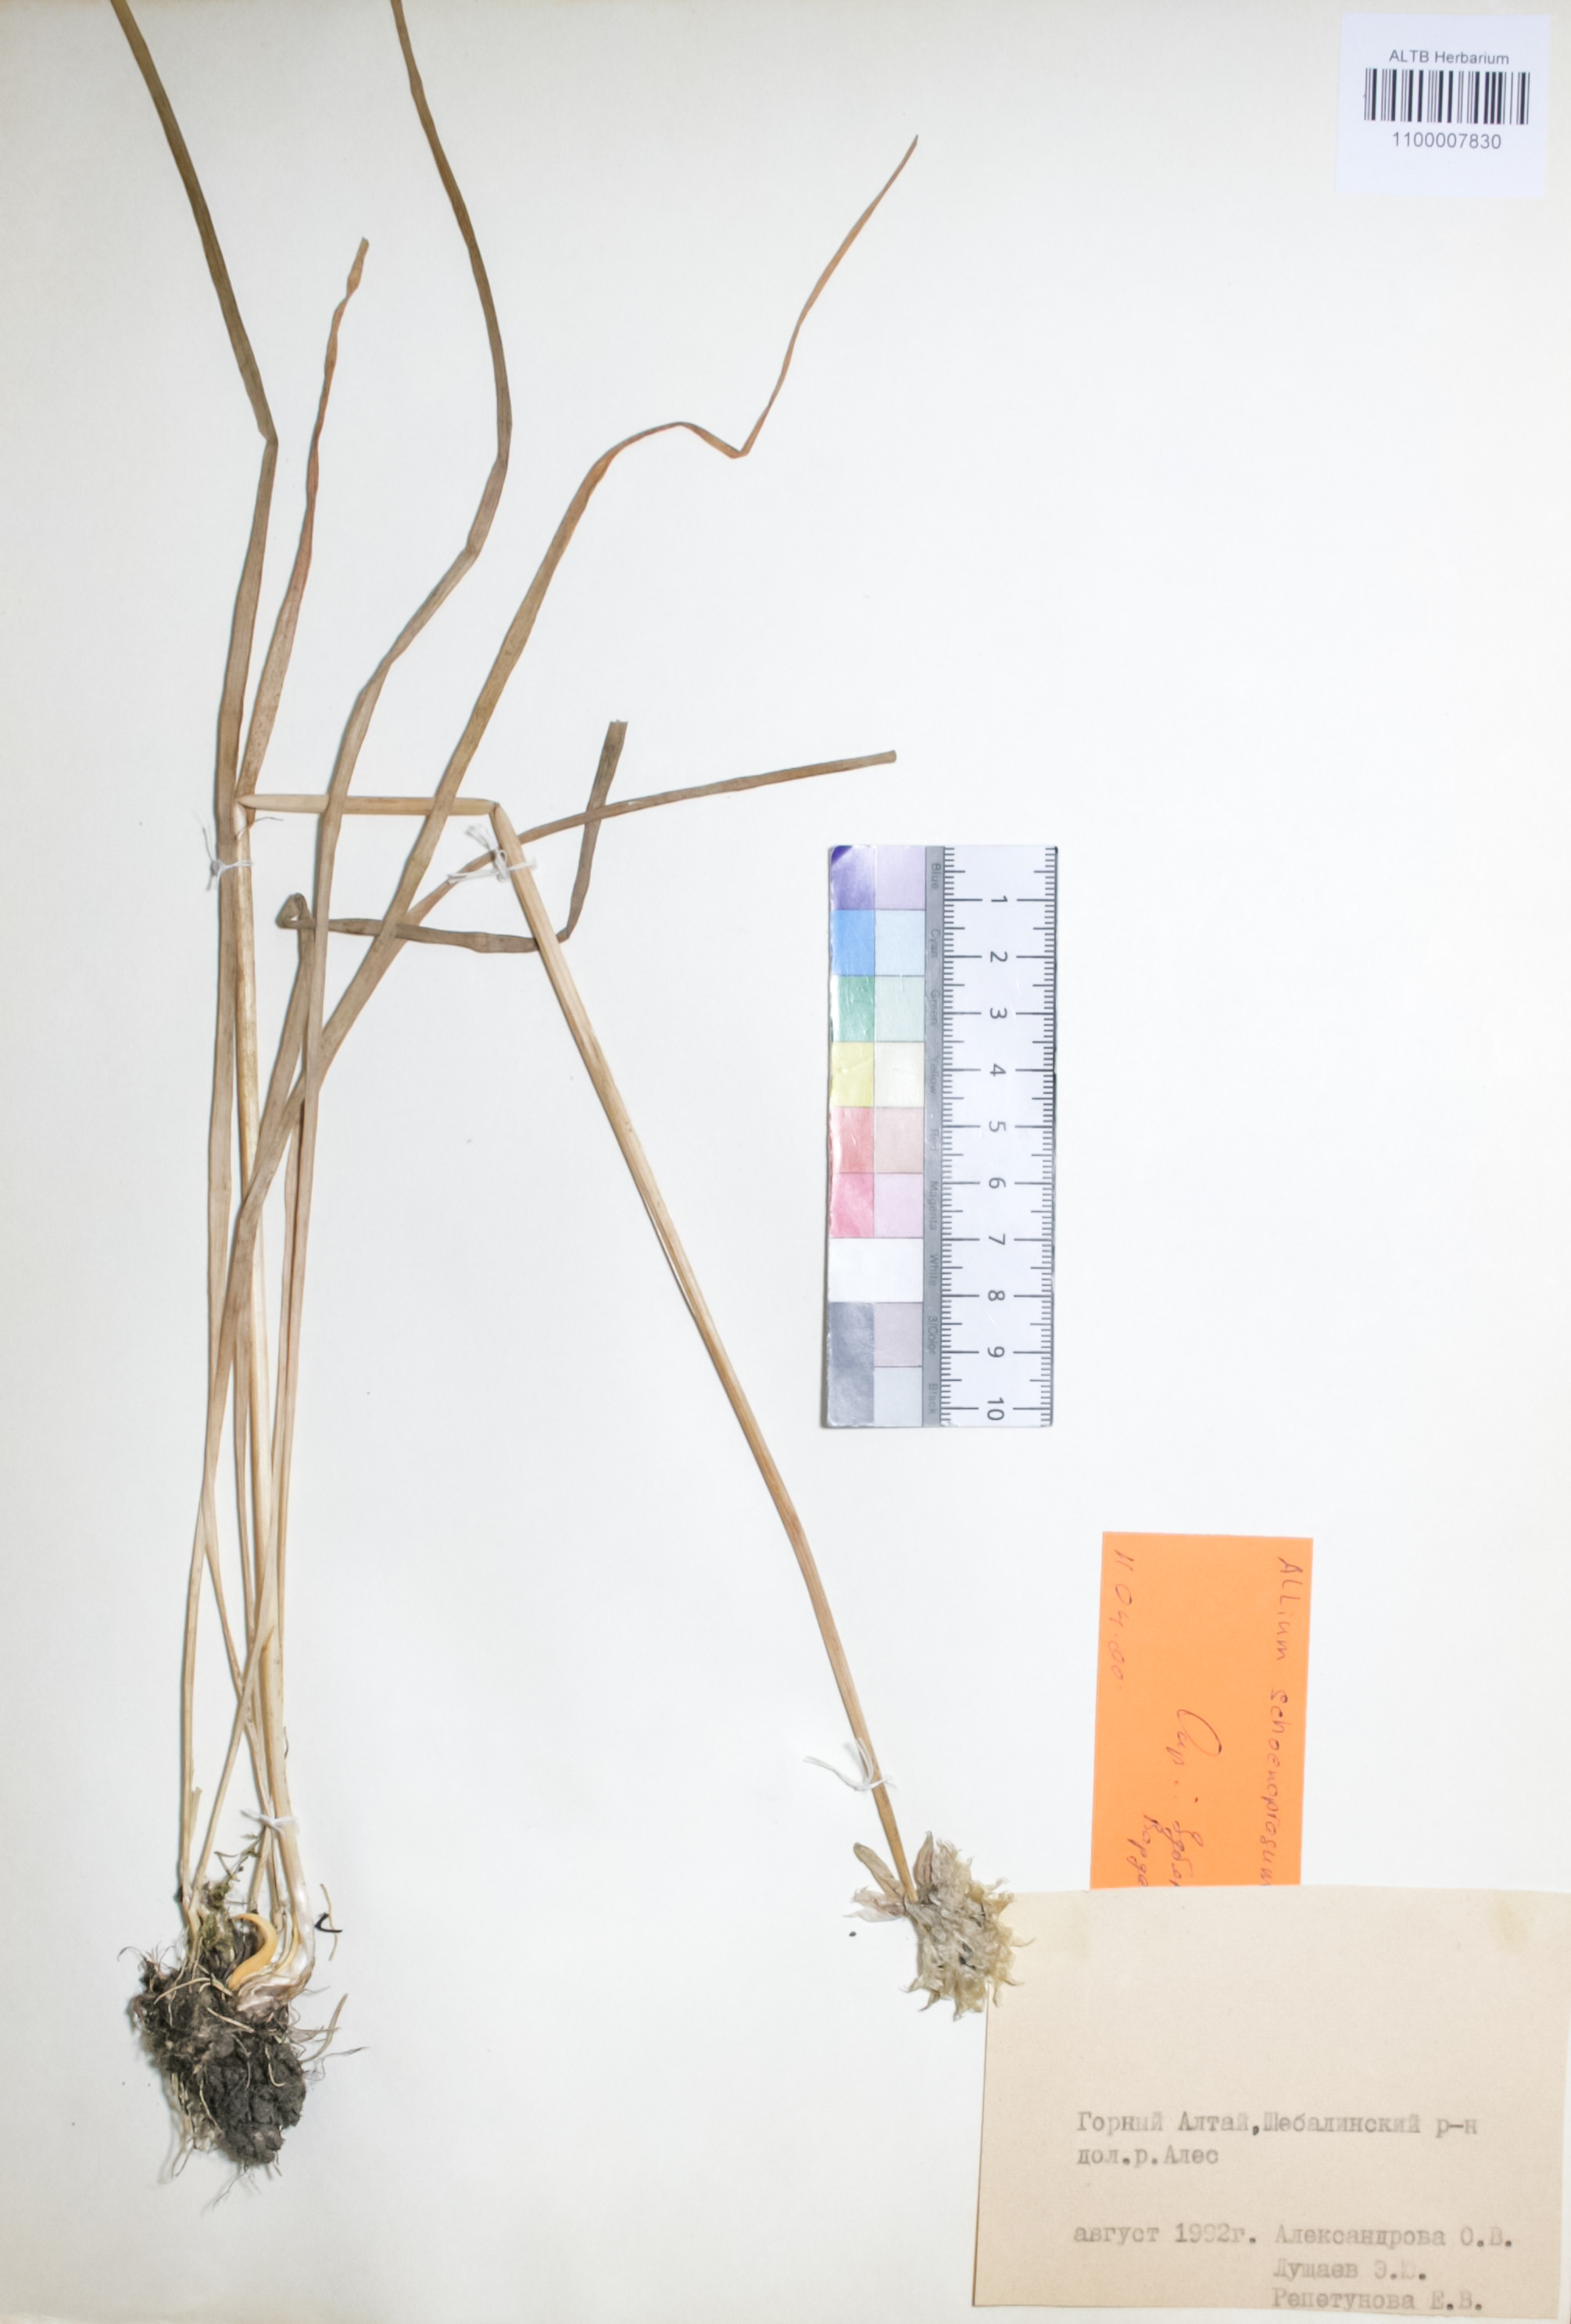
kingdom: Plantae
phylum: Tracheophyta
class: Liliopsida
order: Asparagales
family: Amaryllidaceae
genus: Allium
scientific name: Allium schoenoprasum
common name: Chives
